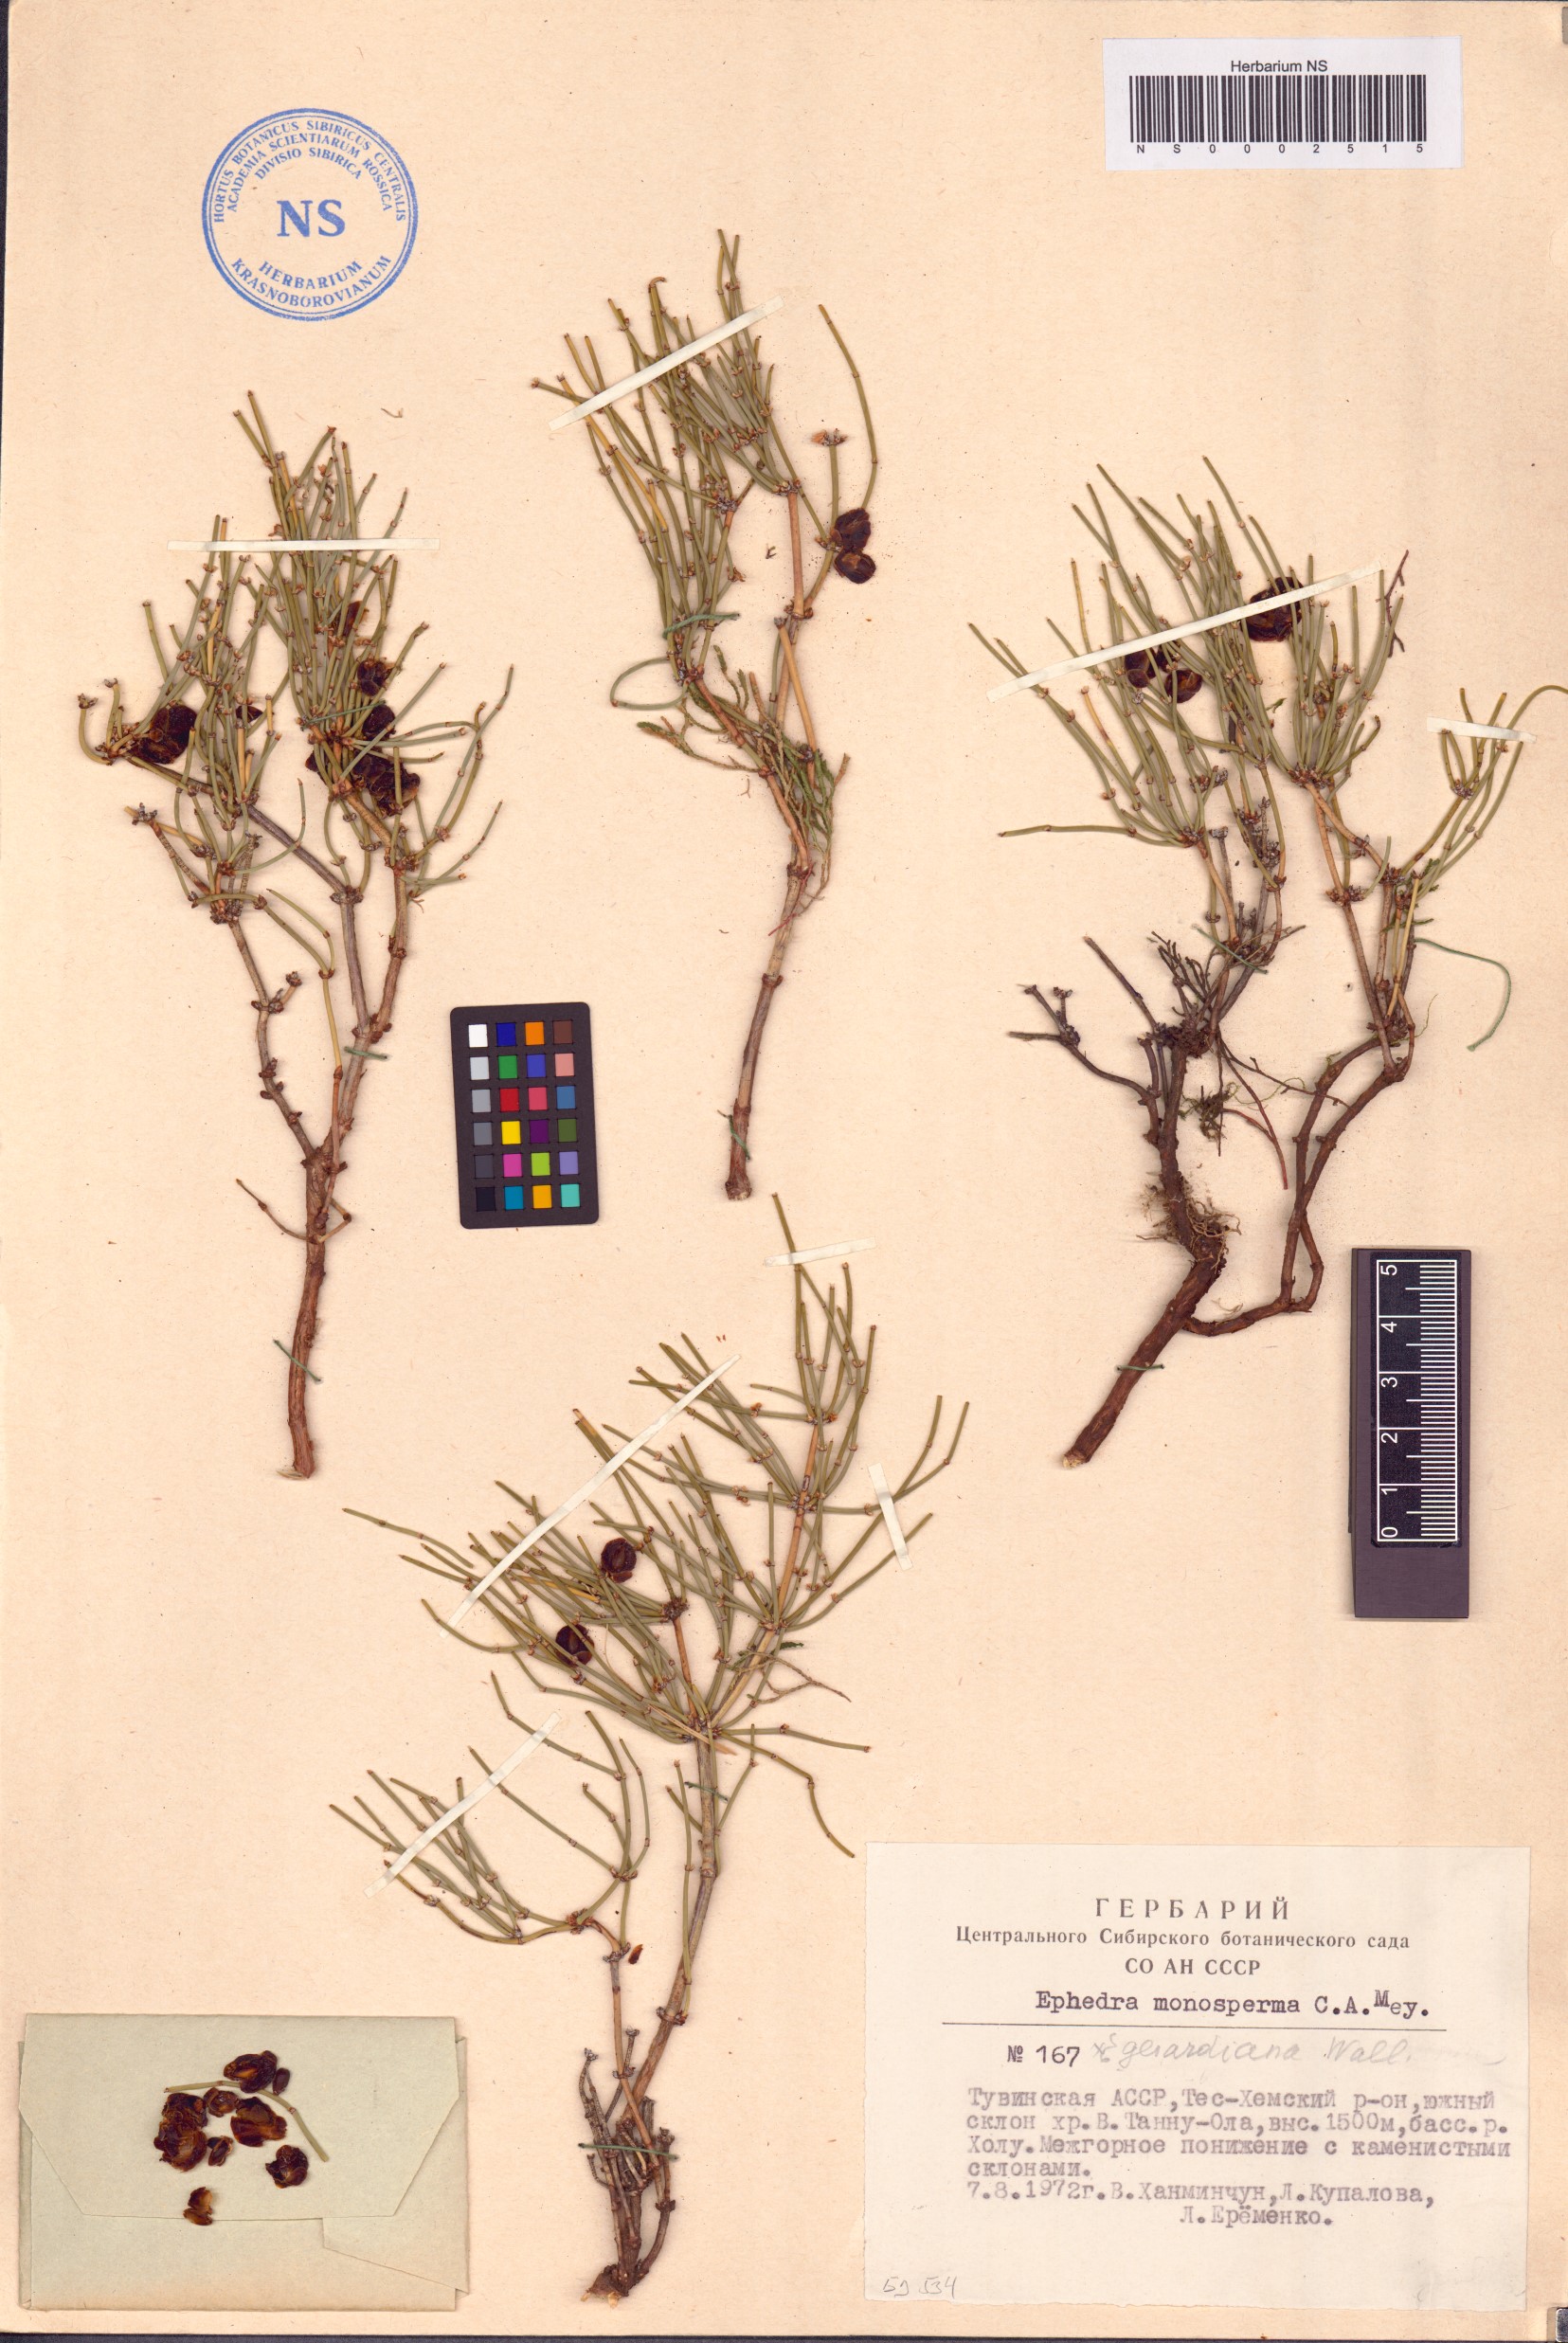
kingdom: Plantae
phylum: Tracheophyta
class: Gnetopsida
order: Ephedrales
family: Ephedraceae
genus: Ephedra
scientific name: Ephedra monosperma
